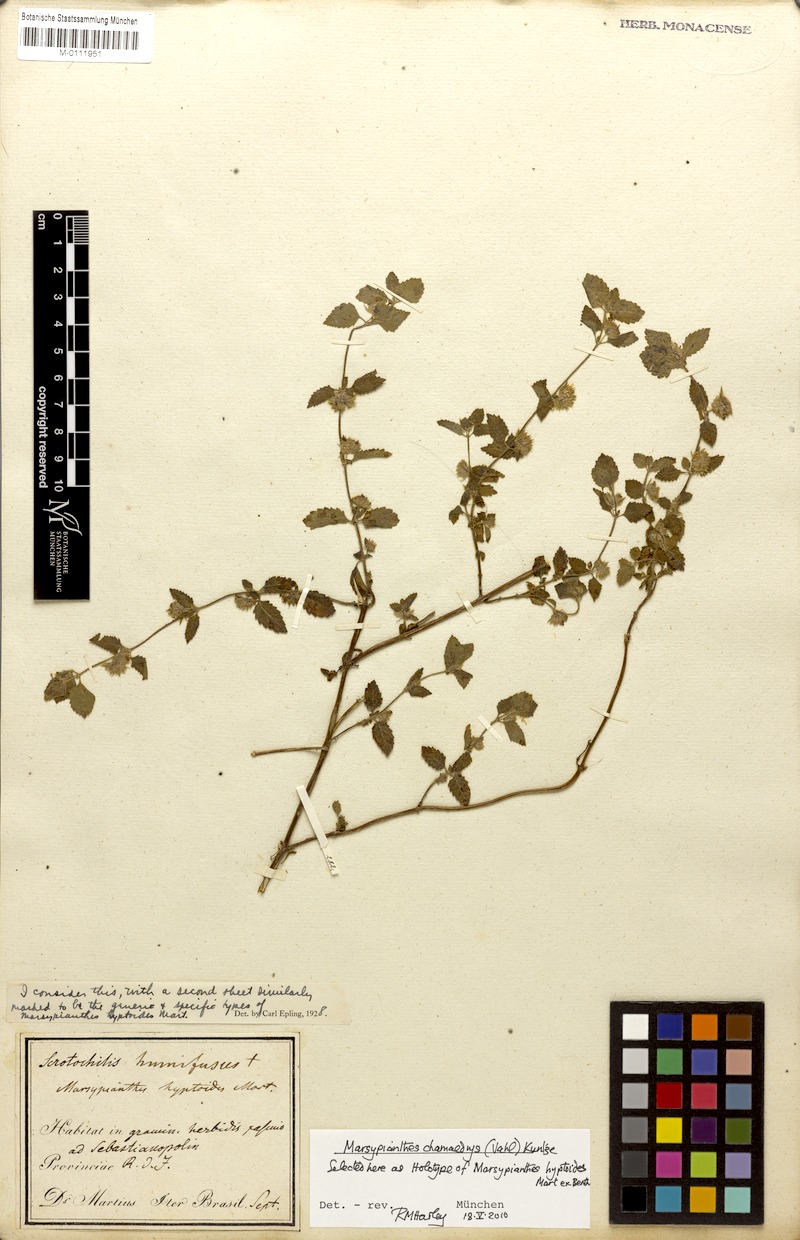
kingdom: Plantae
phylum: Tracheophyta
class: Magnoliopsida
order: Lamiales
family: Lamiaceae
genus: Marsypianthes
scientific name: Marsypianthes chamaedrys
